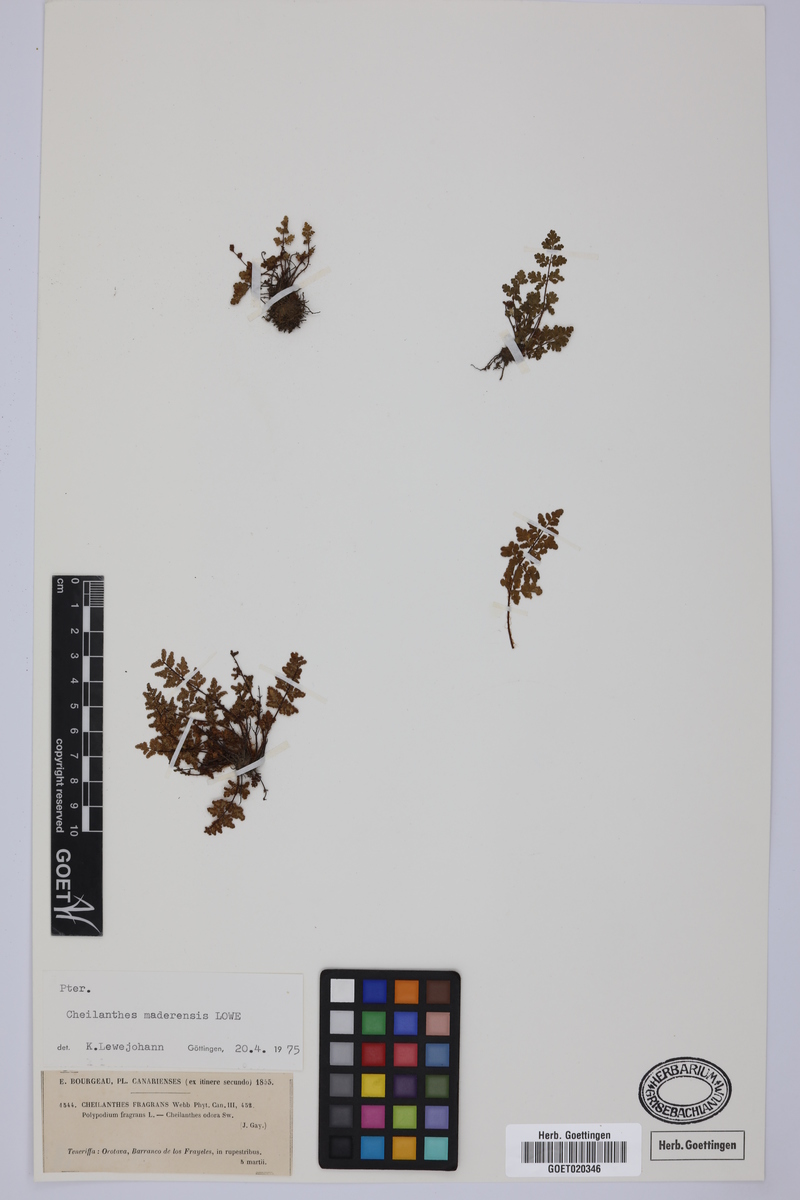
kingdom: Plantae
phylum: Tracheophyta
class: Polypodiopsida
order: Polypodiales
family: Pteridaceae
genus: Oeosporangium
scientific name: Oeosporangium pteridioides
